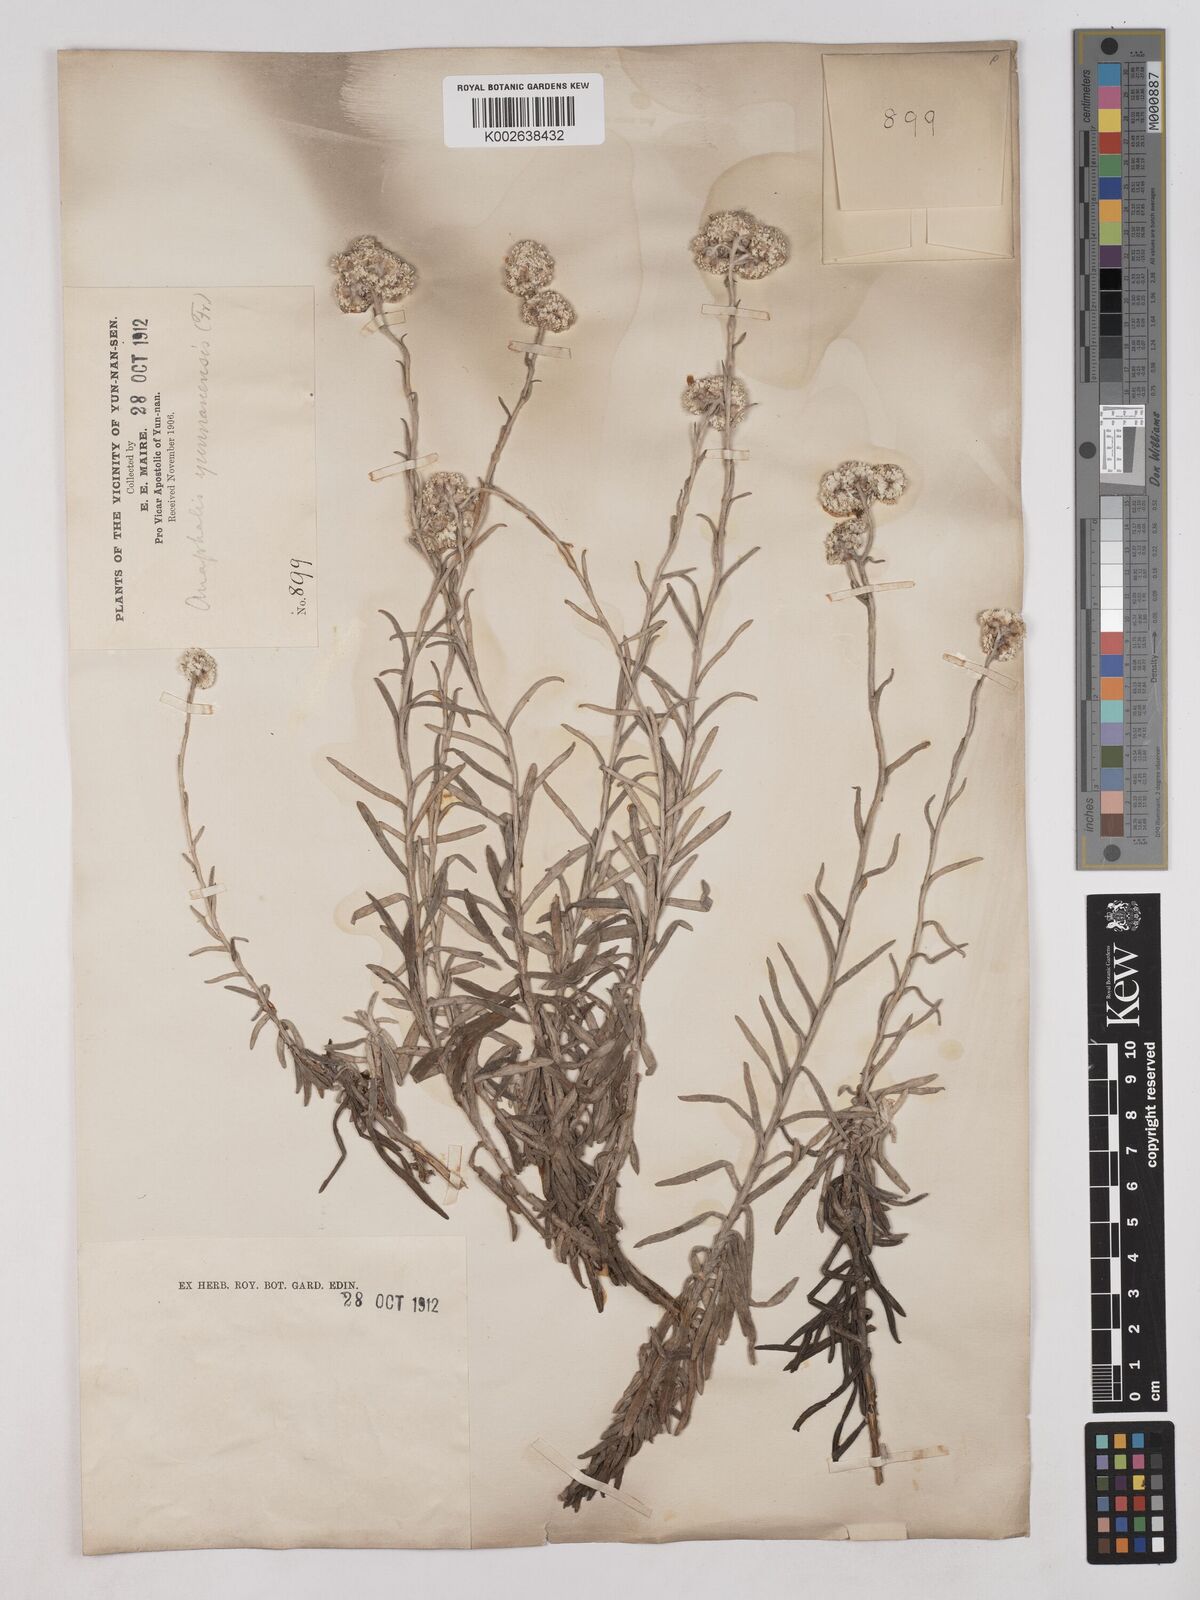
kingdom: Plantae
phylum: Tracheophyta
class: Magnoliopsida
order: Asterales
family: Asteraceae
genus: Anaphalis
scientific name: Anaphalis yunnanensis
